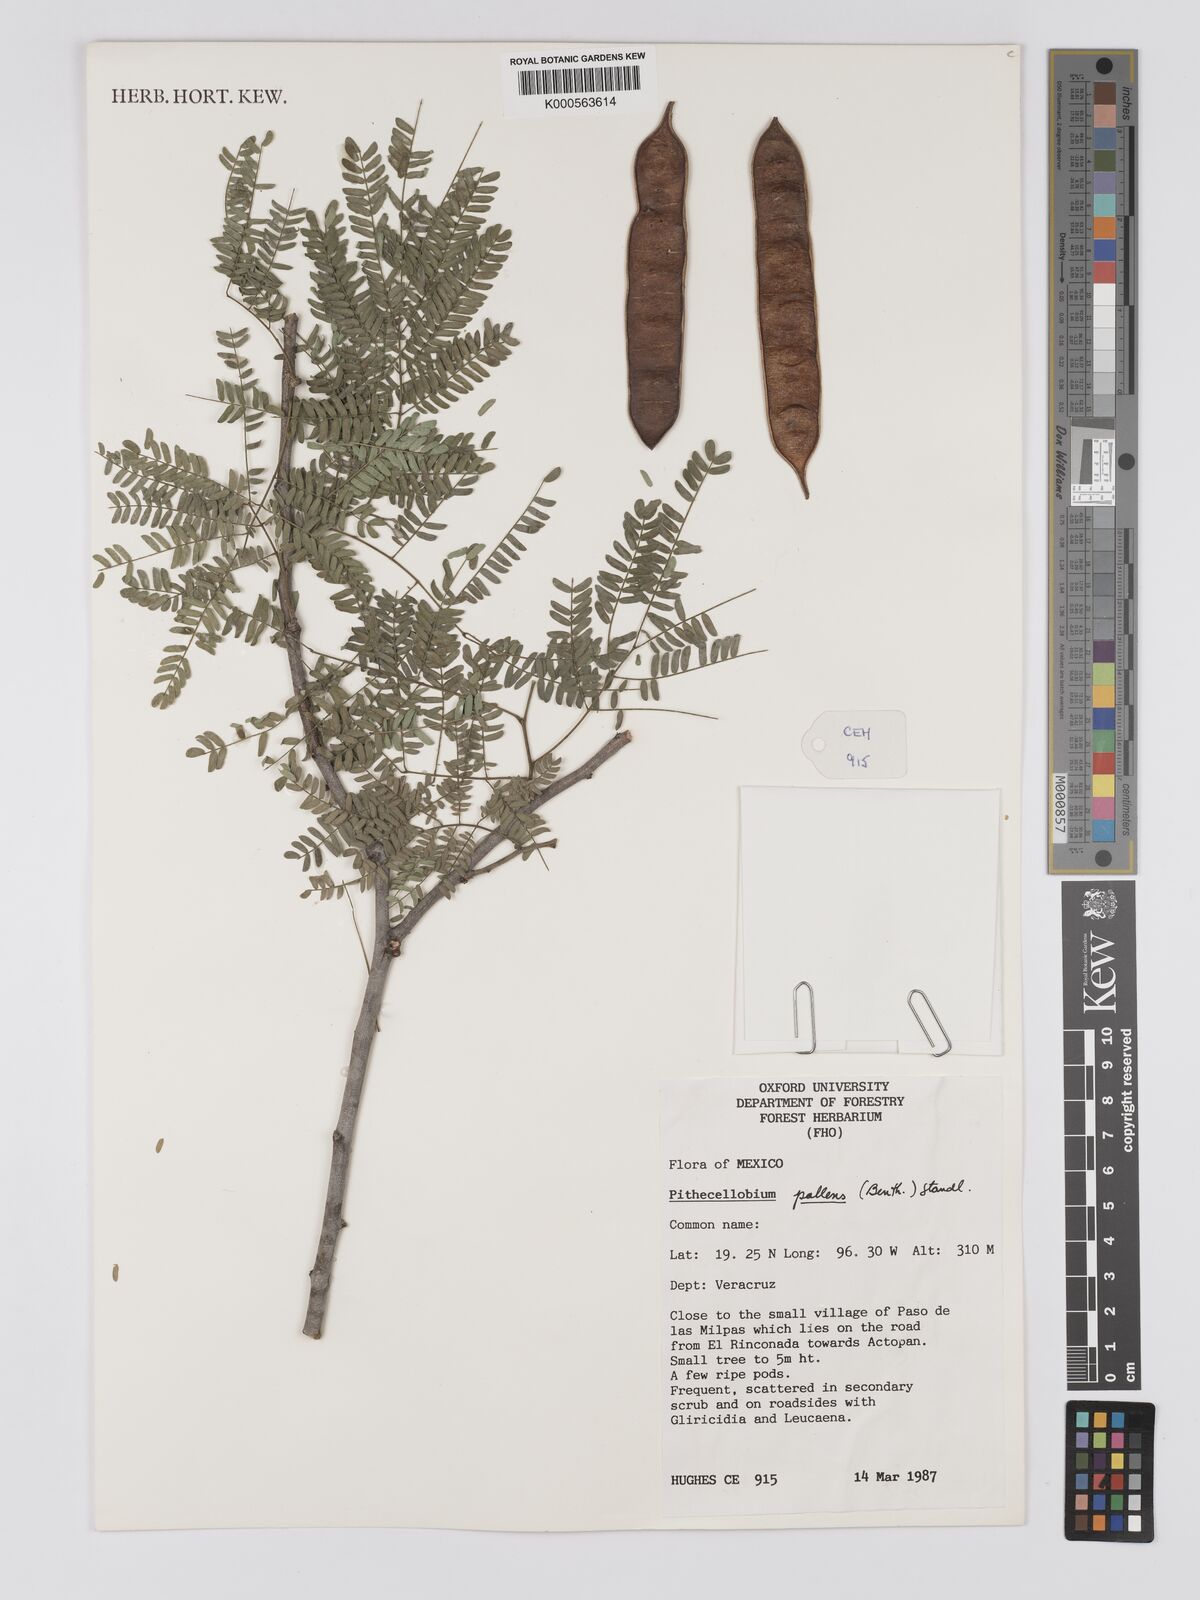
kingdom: Plantae
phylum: Tracheophyta
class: Magnoliopsida
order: Fabales
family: Fabaceae
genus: Havardia
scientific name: Havardia pallens
